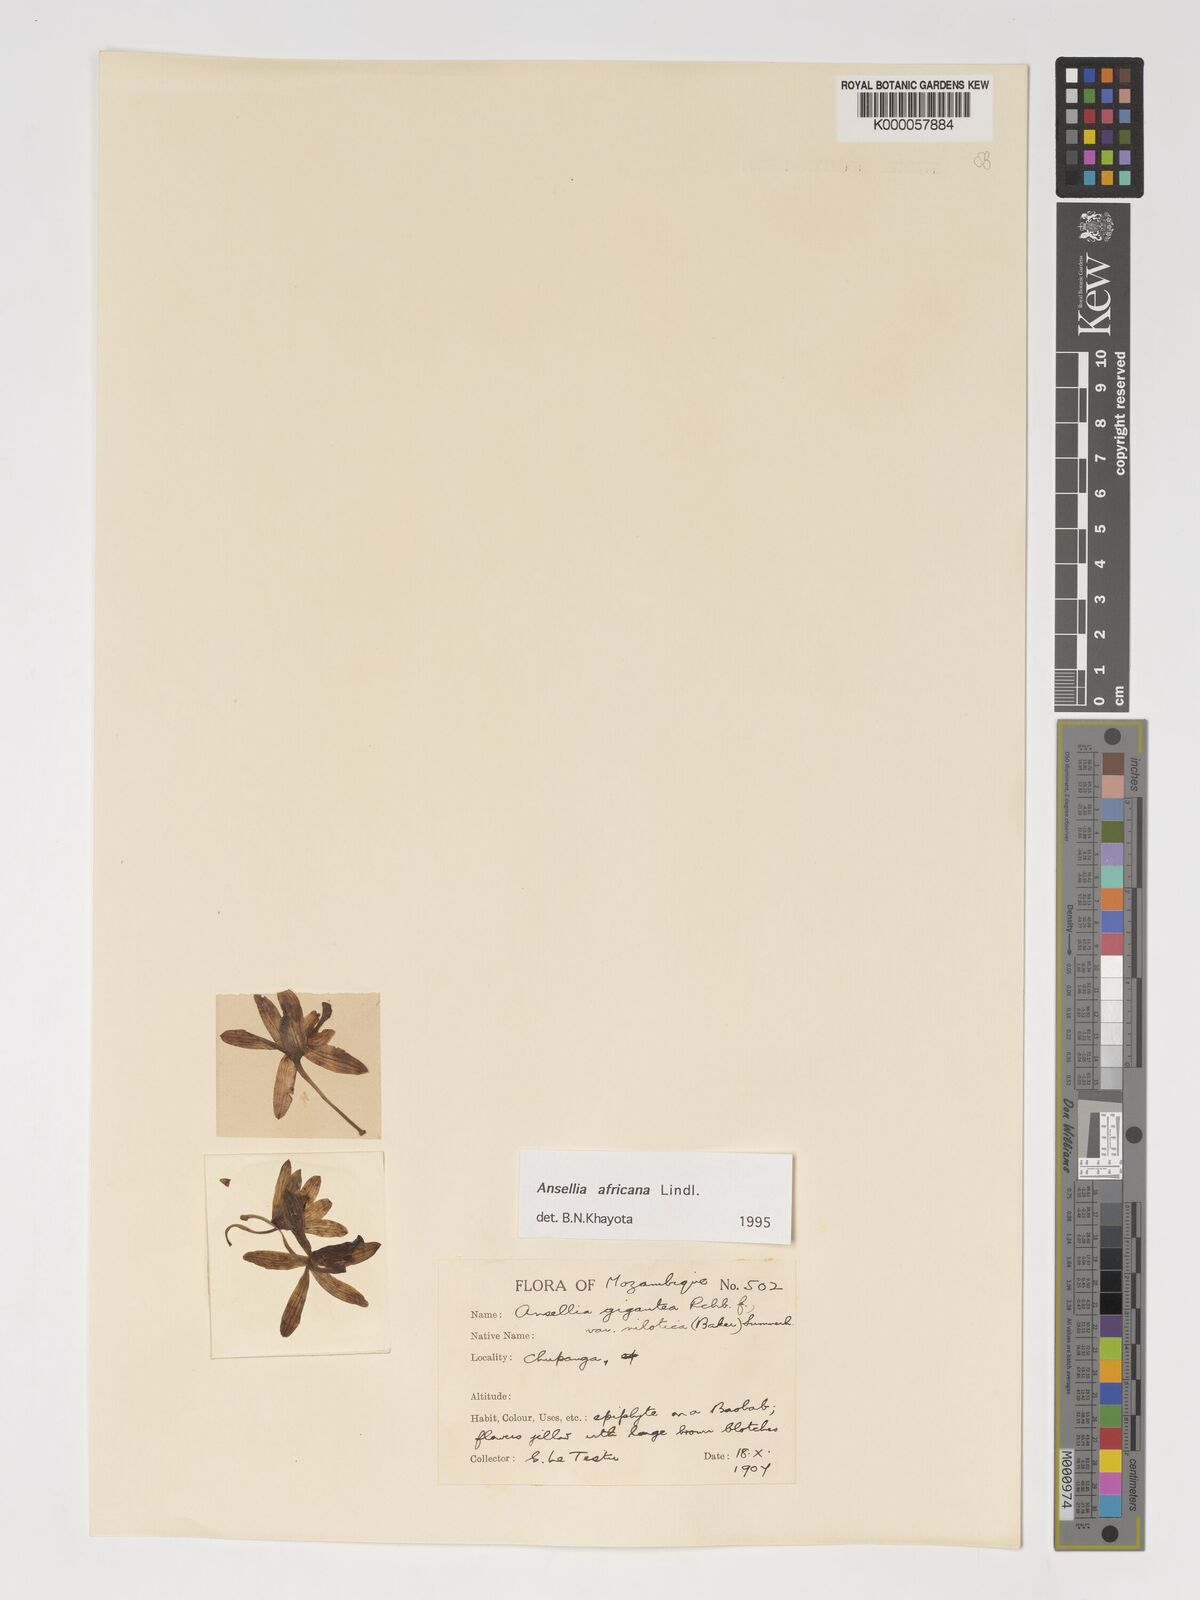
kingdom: Plantae
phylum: Tracheophyta
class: Liliopsida
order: Asparagales
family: Orchidaceae
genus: Ansellia
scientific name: Ansellia africana
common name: African ansellia
